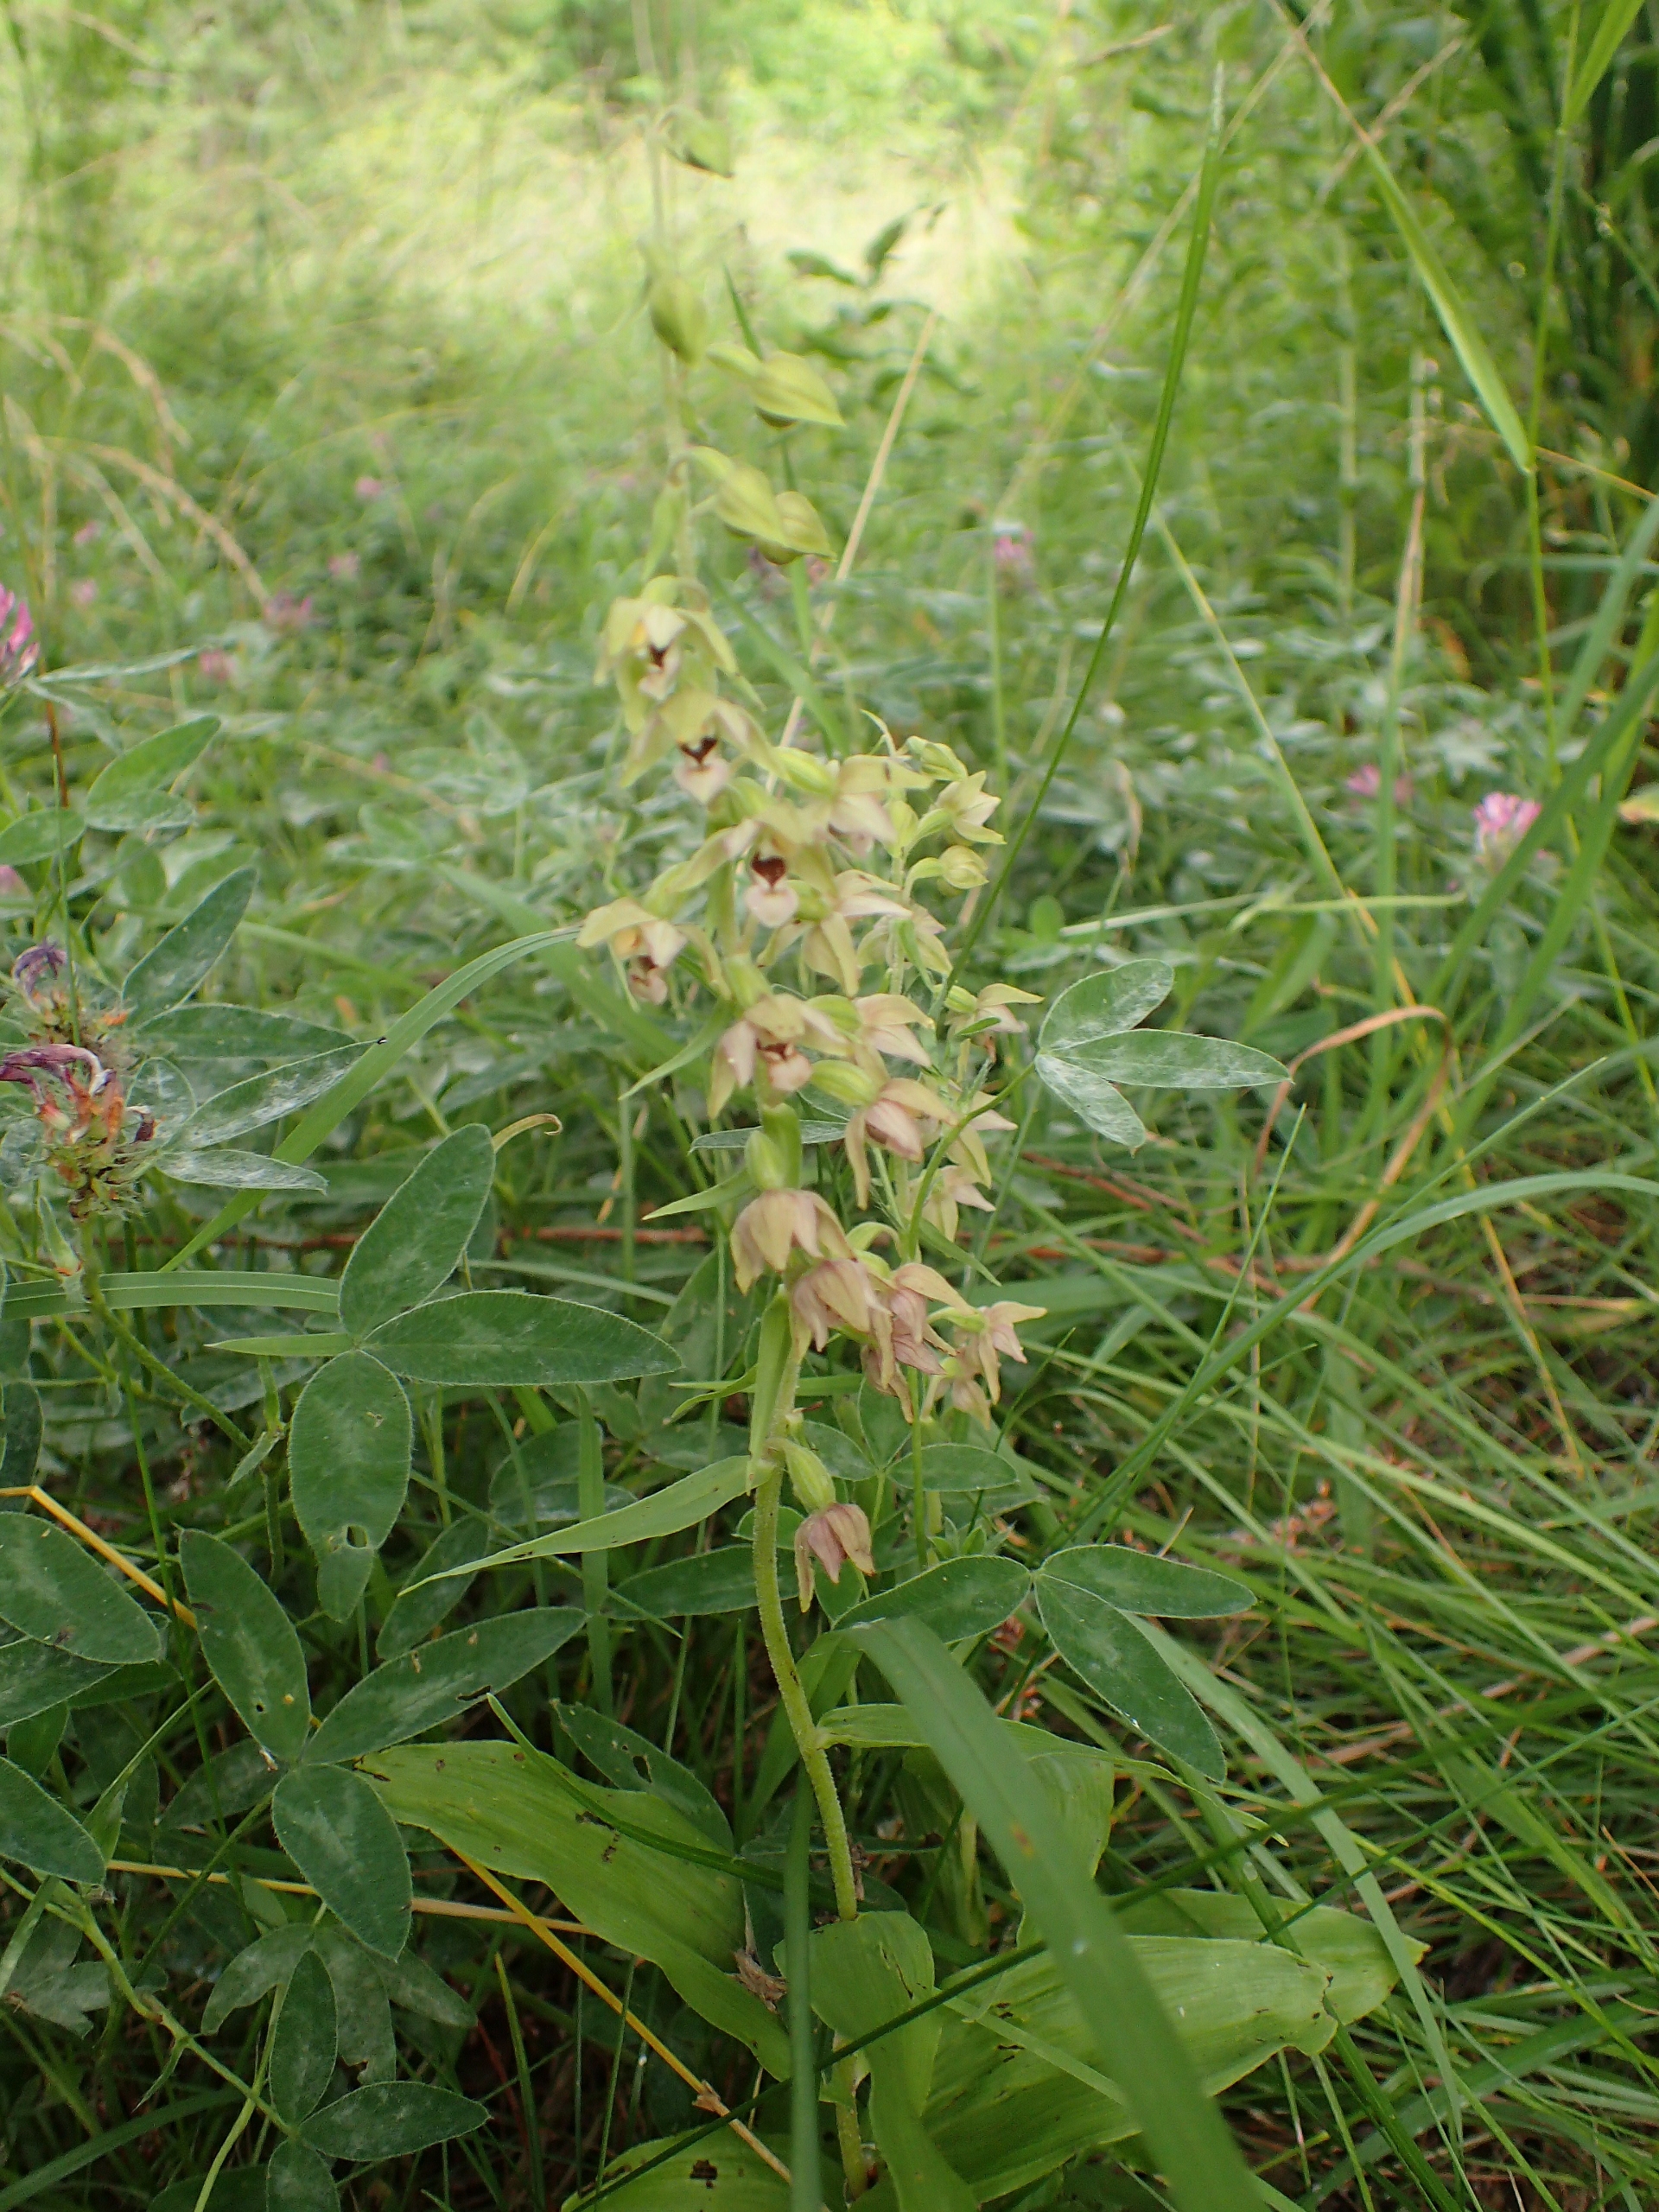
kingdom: Plantae
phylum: Tracheophyta
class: Liliopsida
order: Asparagales
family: Orchidaceae
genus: Epipactis
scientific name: Epipactis helleborine
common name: Skov-hullæbe
